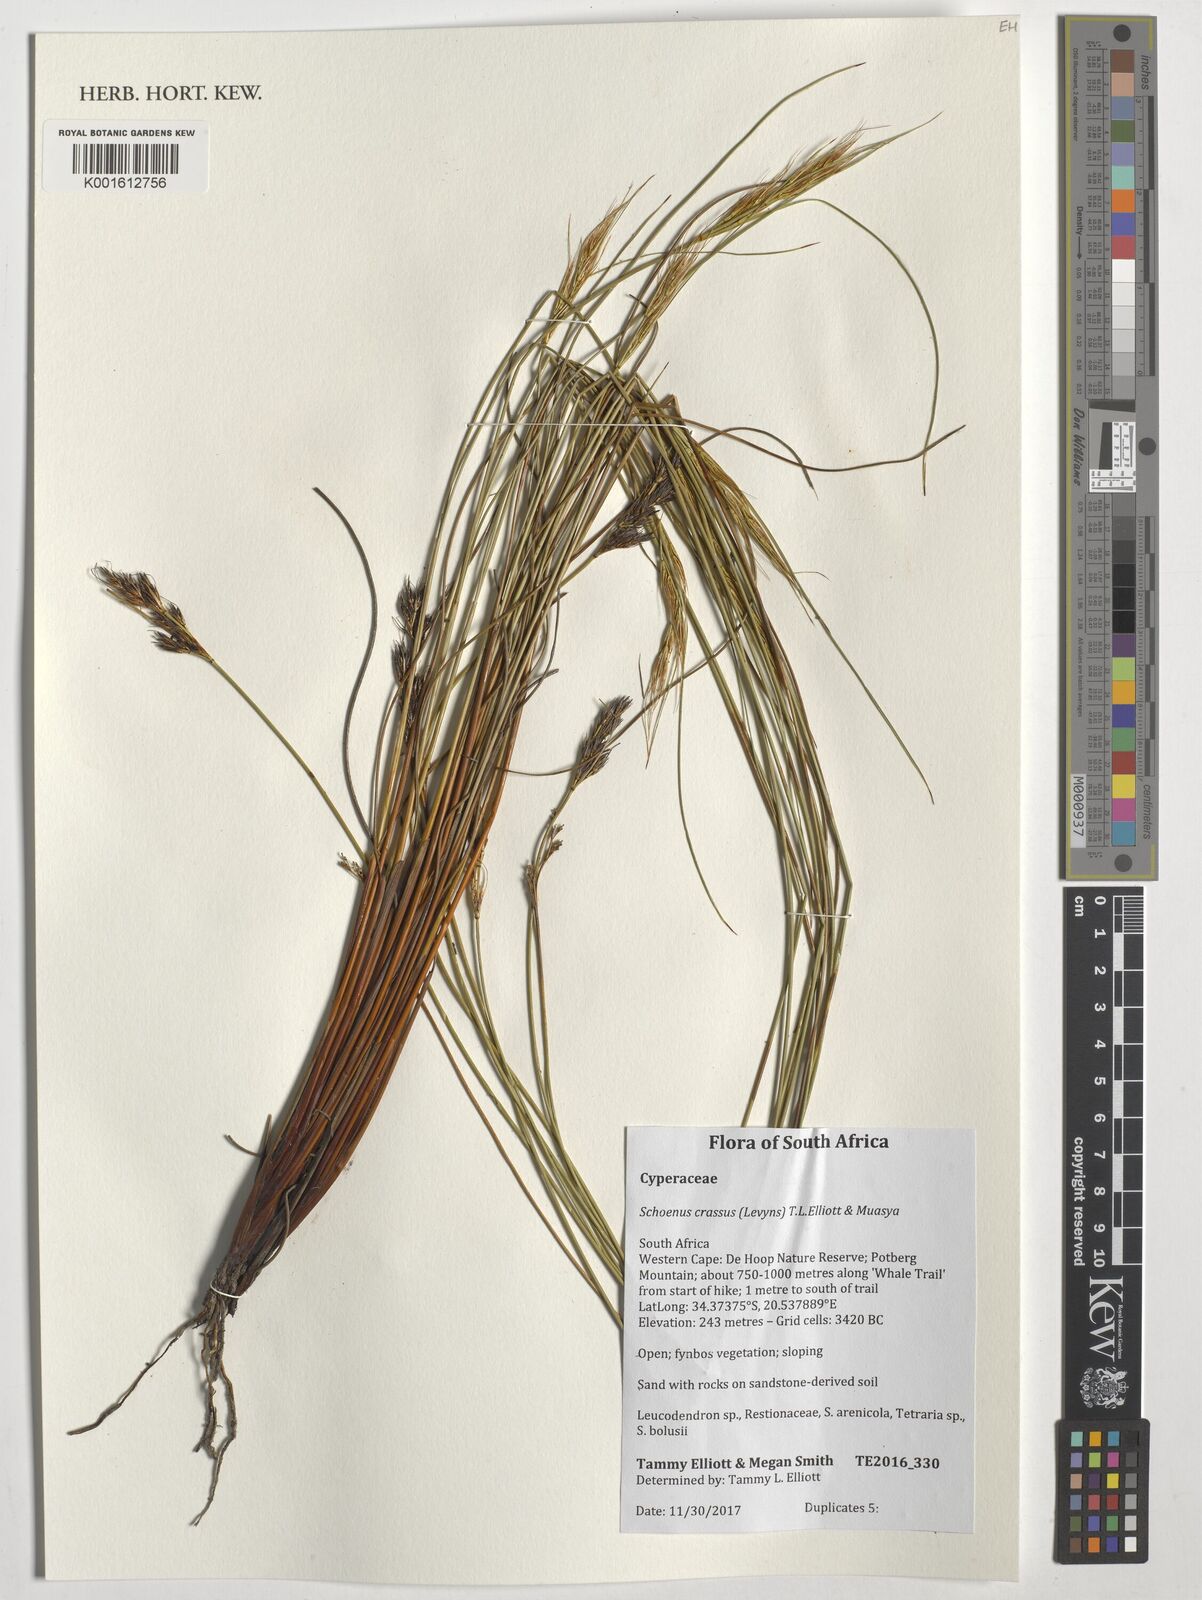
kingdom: Plantae
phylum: Tracheophyta
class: Liliopsida
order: Poales
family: Cyperaceae
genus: Schoenus
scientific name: Schoenus crassus
